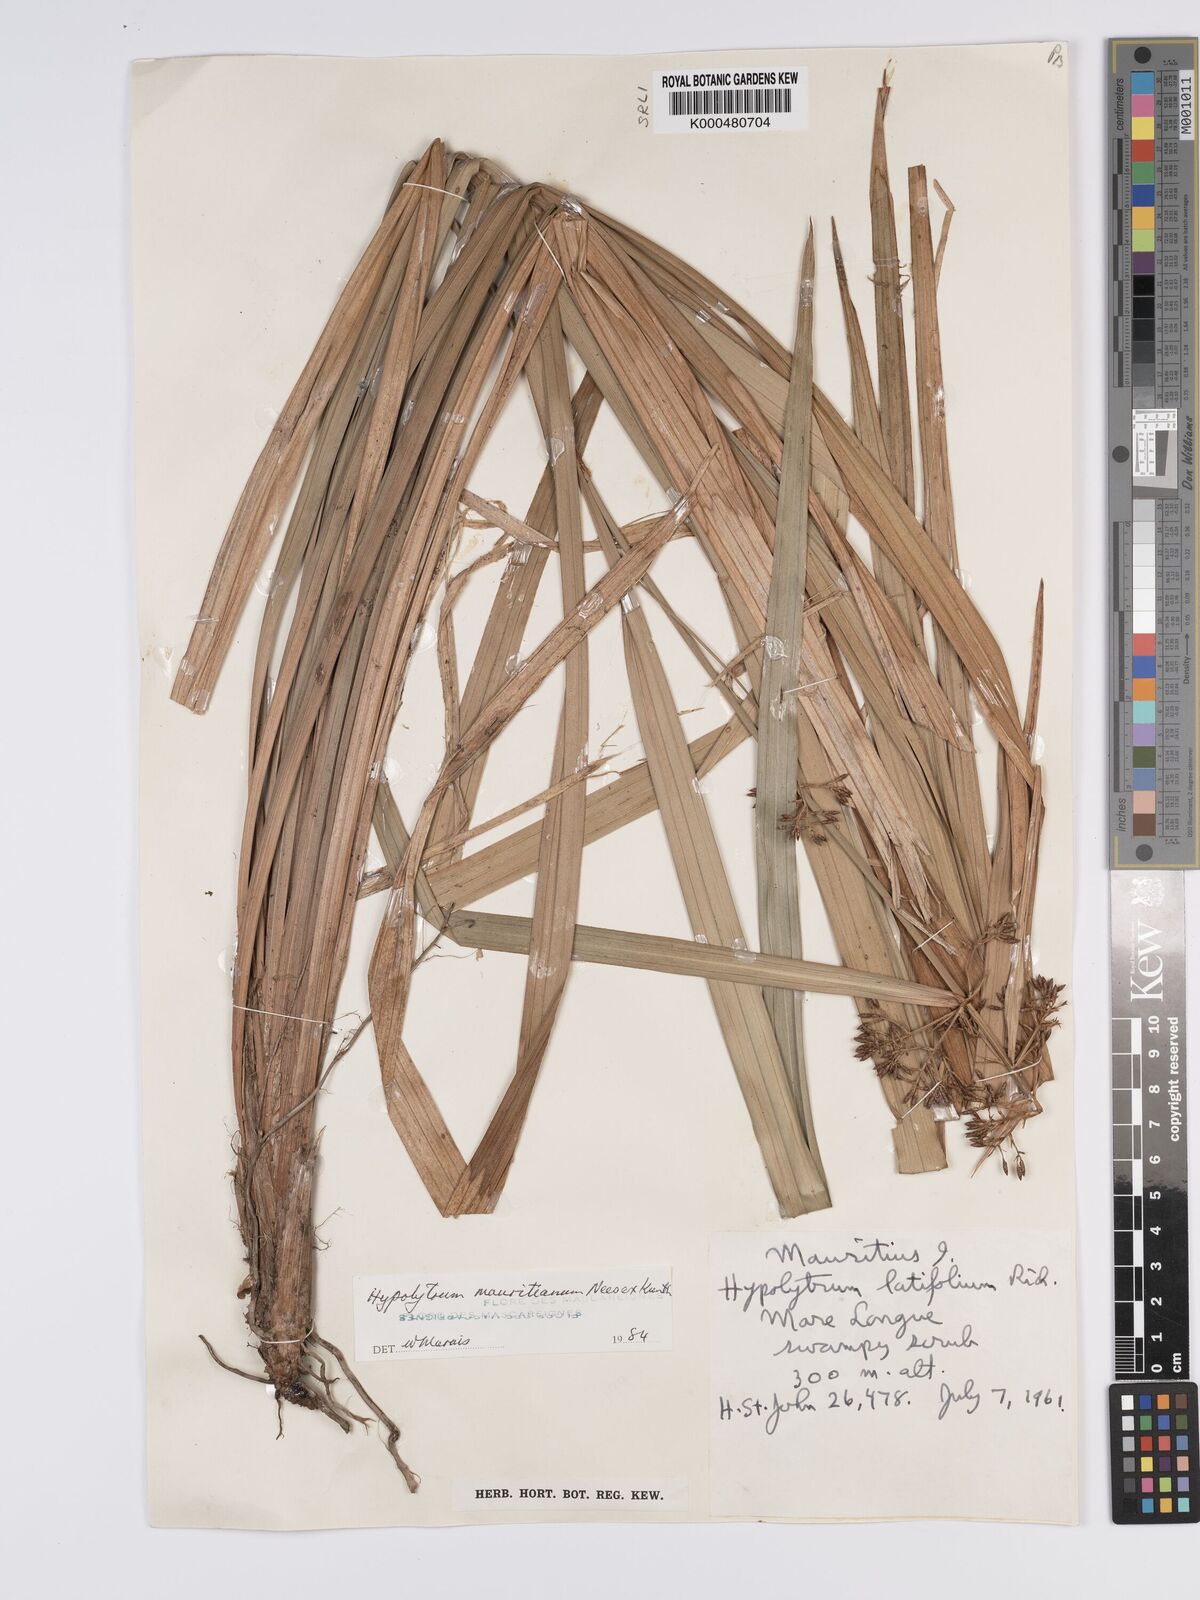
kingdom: Plantae
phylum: Tracheophyta
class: Liliopsida
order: Poales
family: Cyperaceae
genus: Hypolytrum
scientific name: Hypolytrum mauritianum
